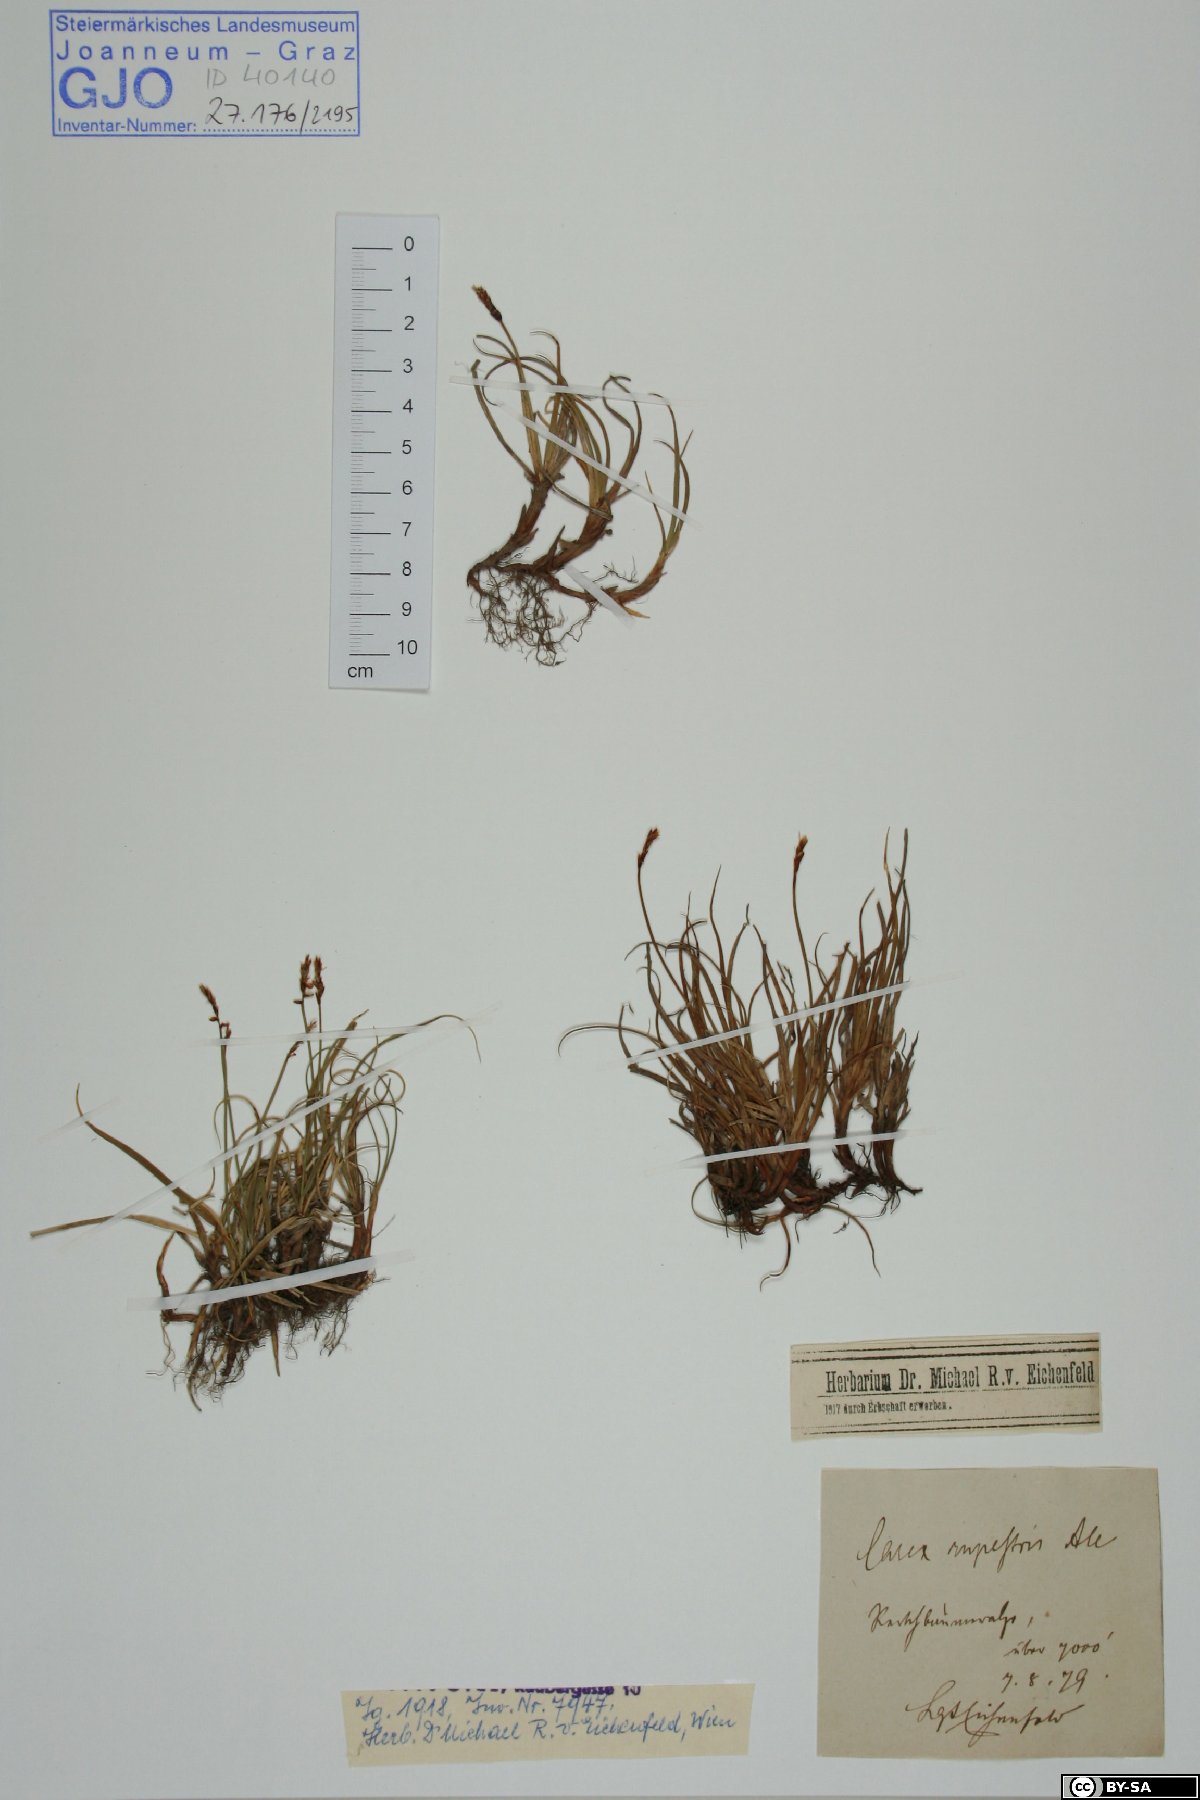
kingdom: Plantae
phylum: Tracheophyta
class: Liliopsida
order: Poales
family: Cyperaceae
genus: Carex
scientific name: Carex rupestris
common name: Rock sedge
